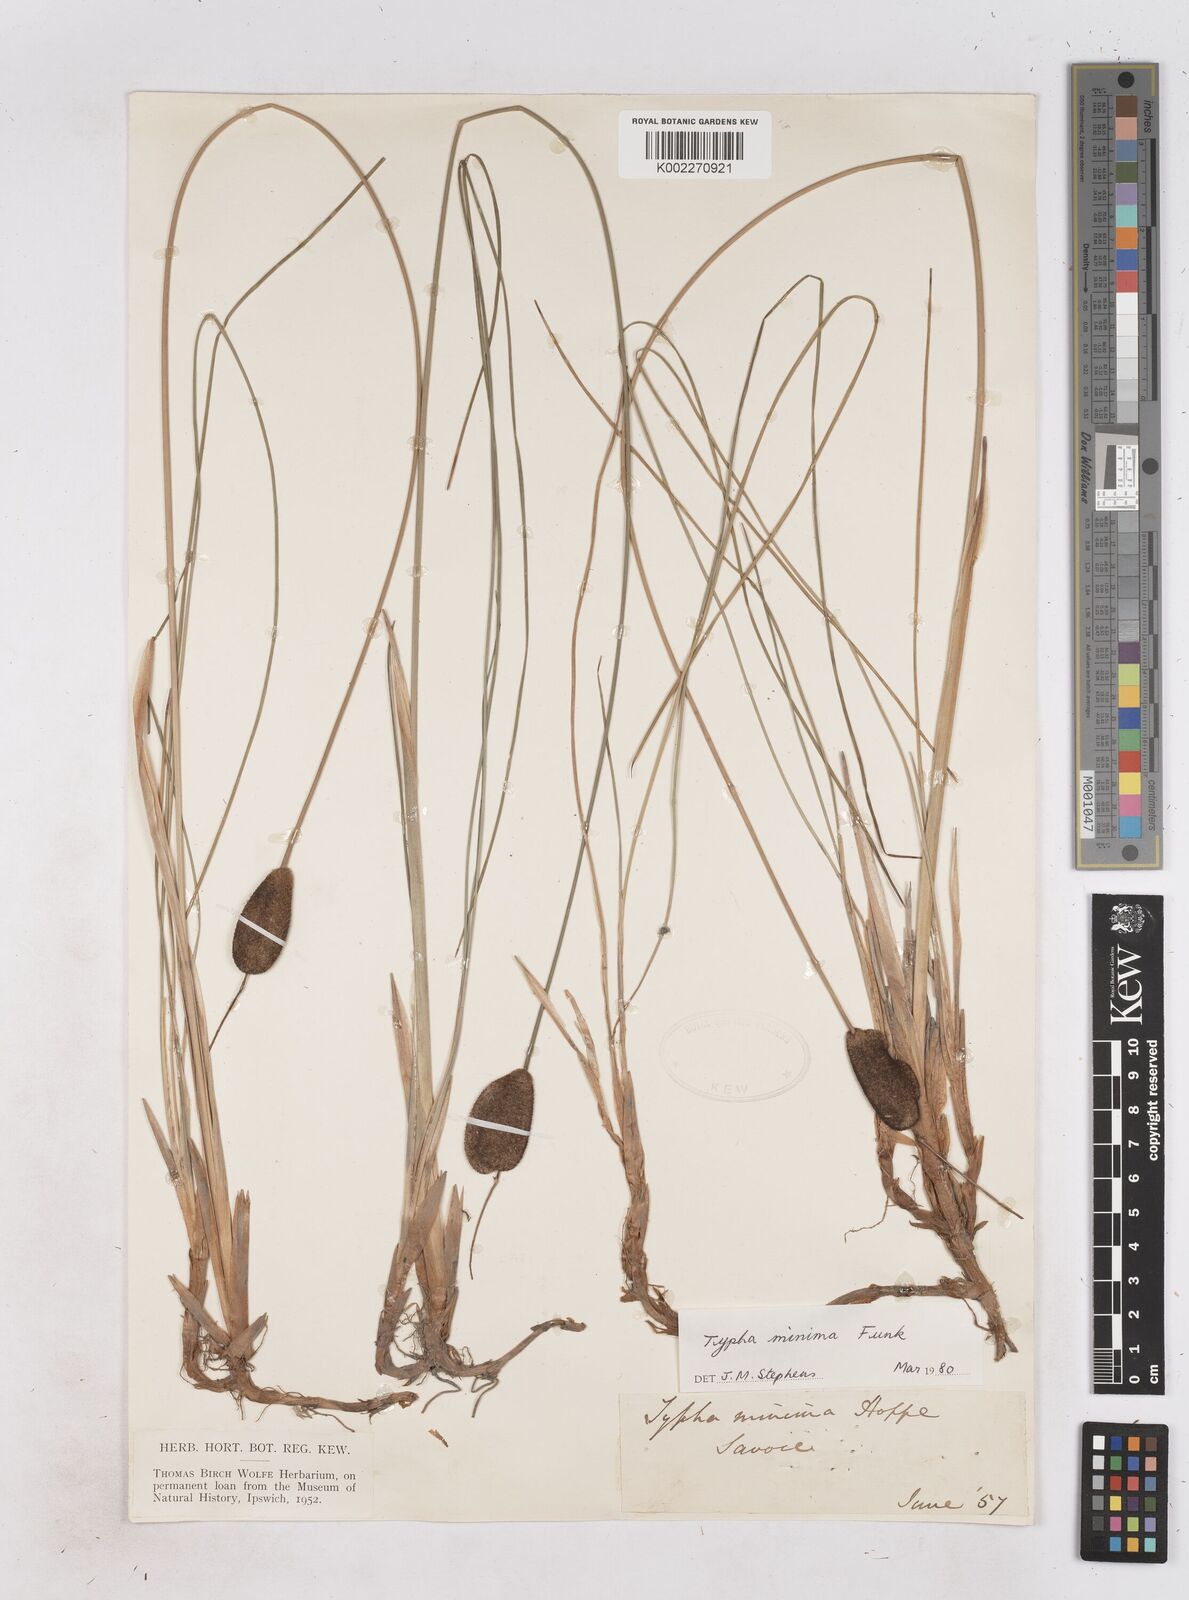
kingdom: Plantae
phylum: Tracheophyta
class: Liliopsida
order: Poales
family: Typhaceae
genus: Typha
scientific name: Typha
